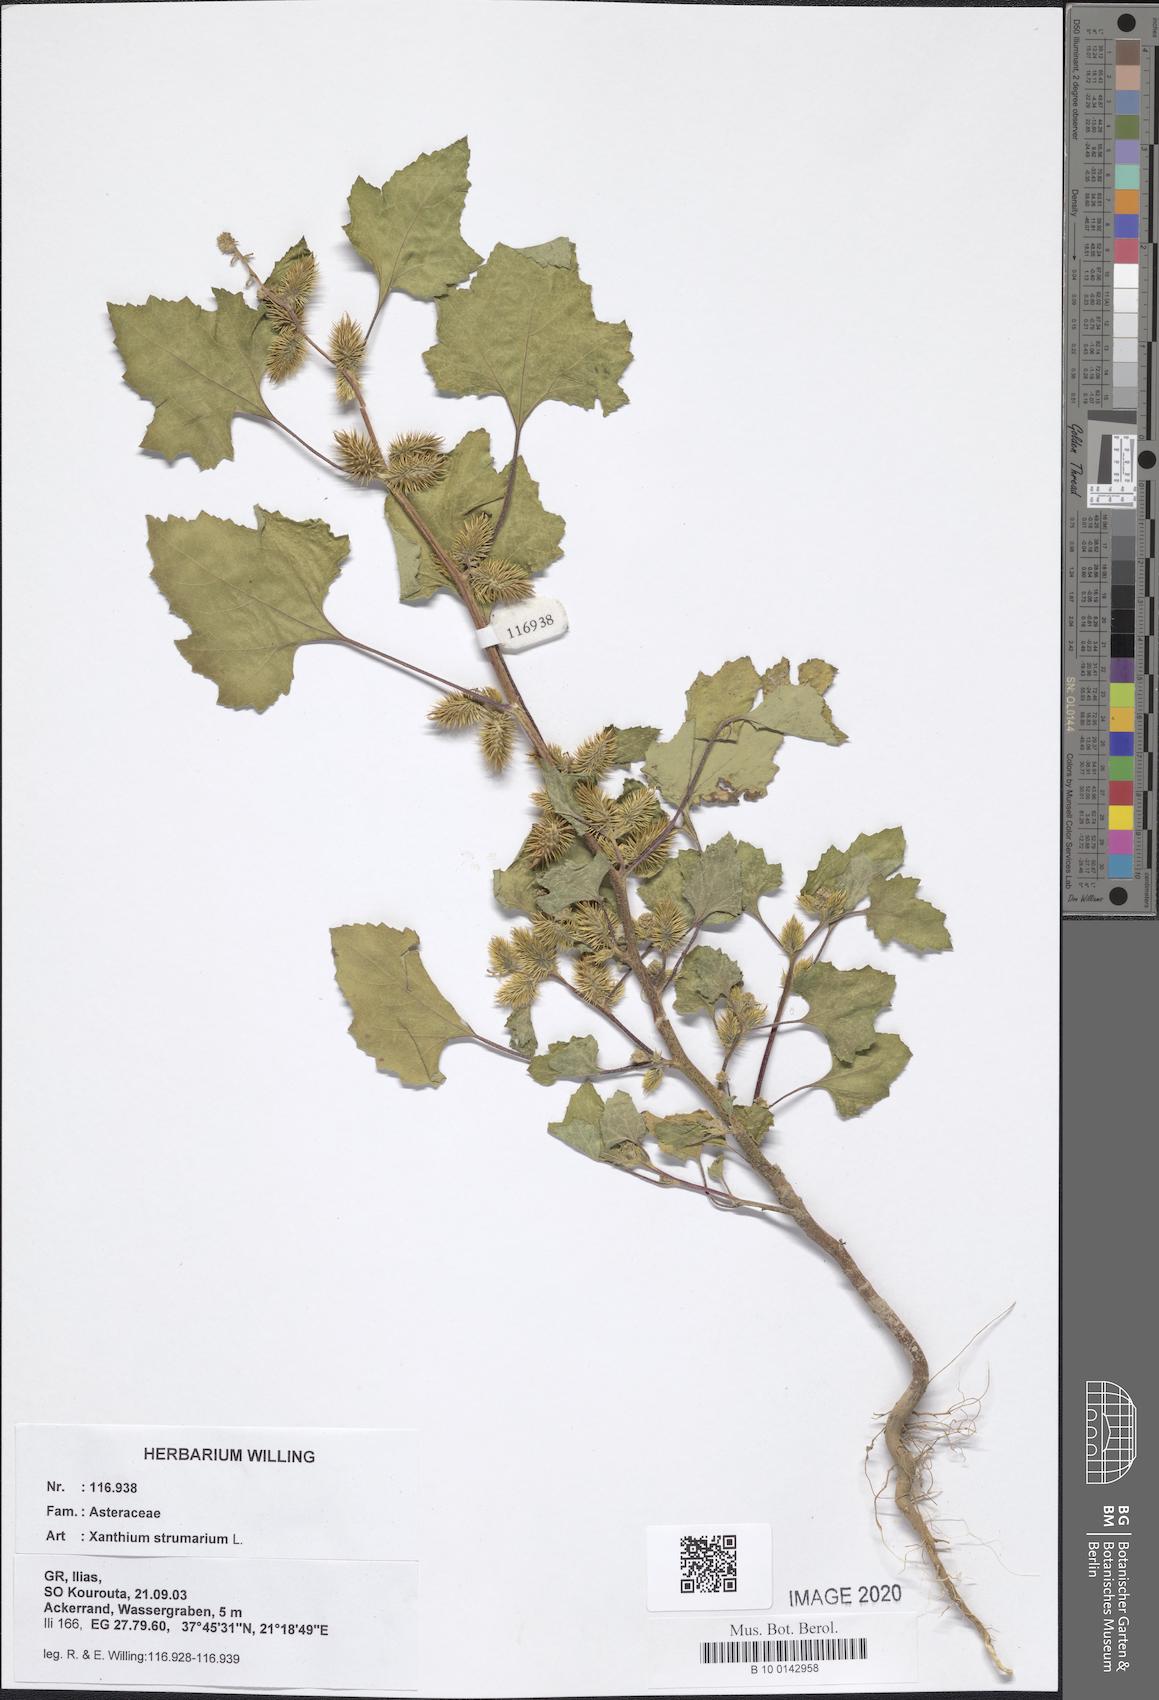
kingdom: Plantae
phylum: Tracheophyta
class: Magnoliopsida
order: Asterales
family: Asteraceae
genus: Xanthium
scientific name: Xanthium strumarium
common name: Rough cocklebur
